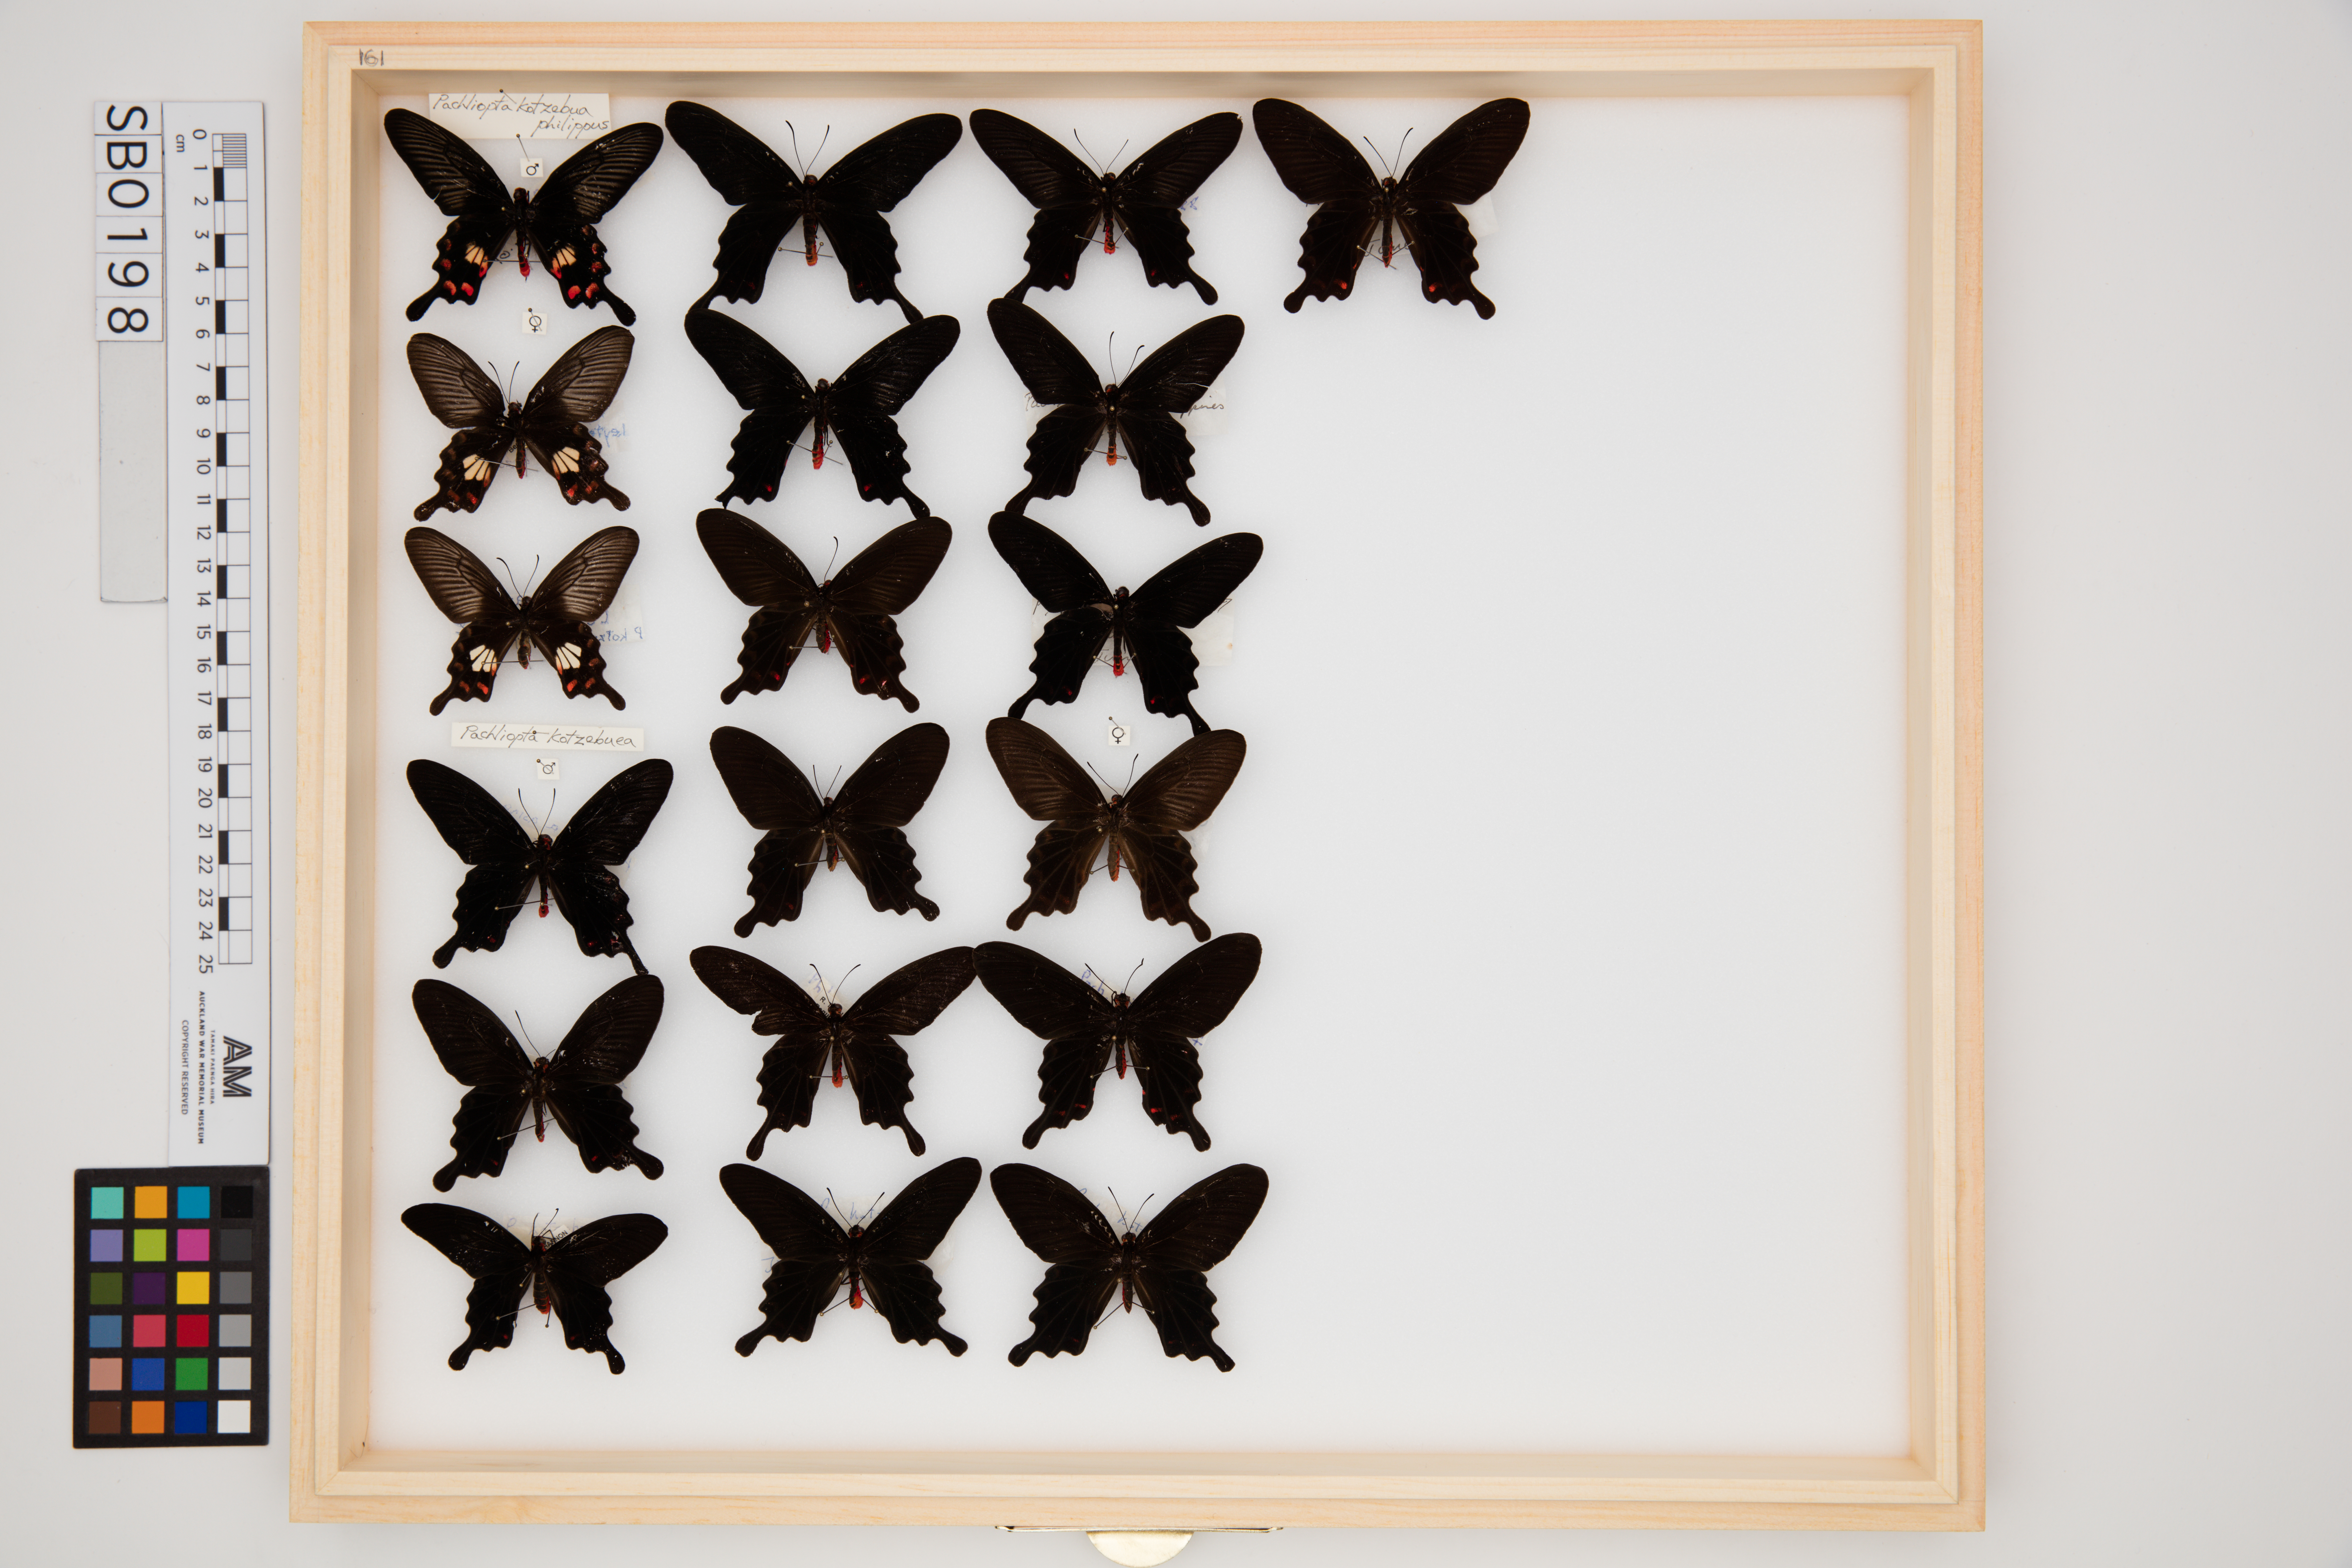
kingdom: Animalia
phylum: Arthropoda
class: Insecta
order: Lepidoptera
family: Papilionidae
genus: Pachliopta
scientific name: Pachliopta kotzebuea
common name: Pink rose
